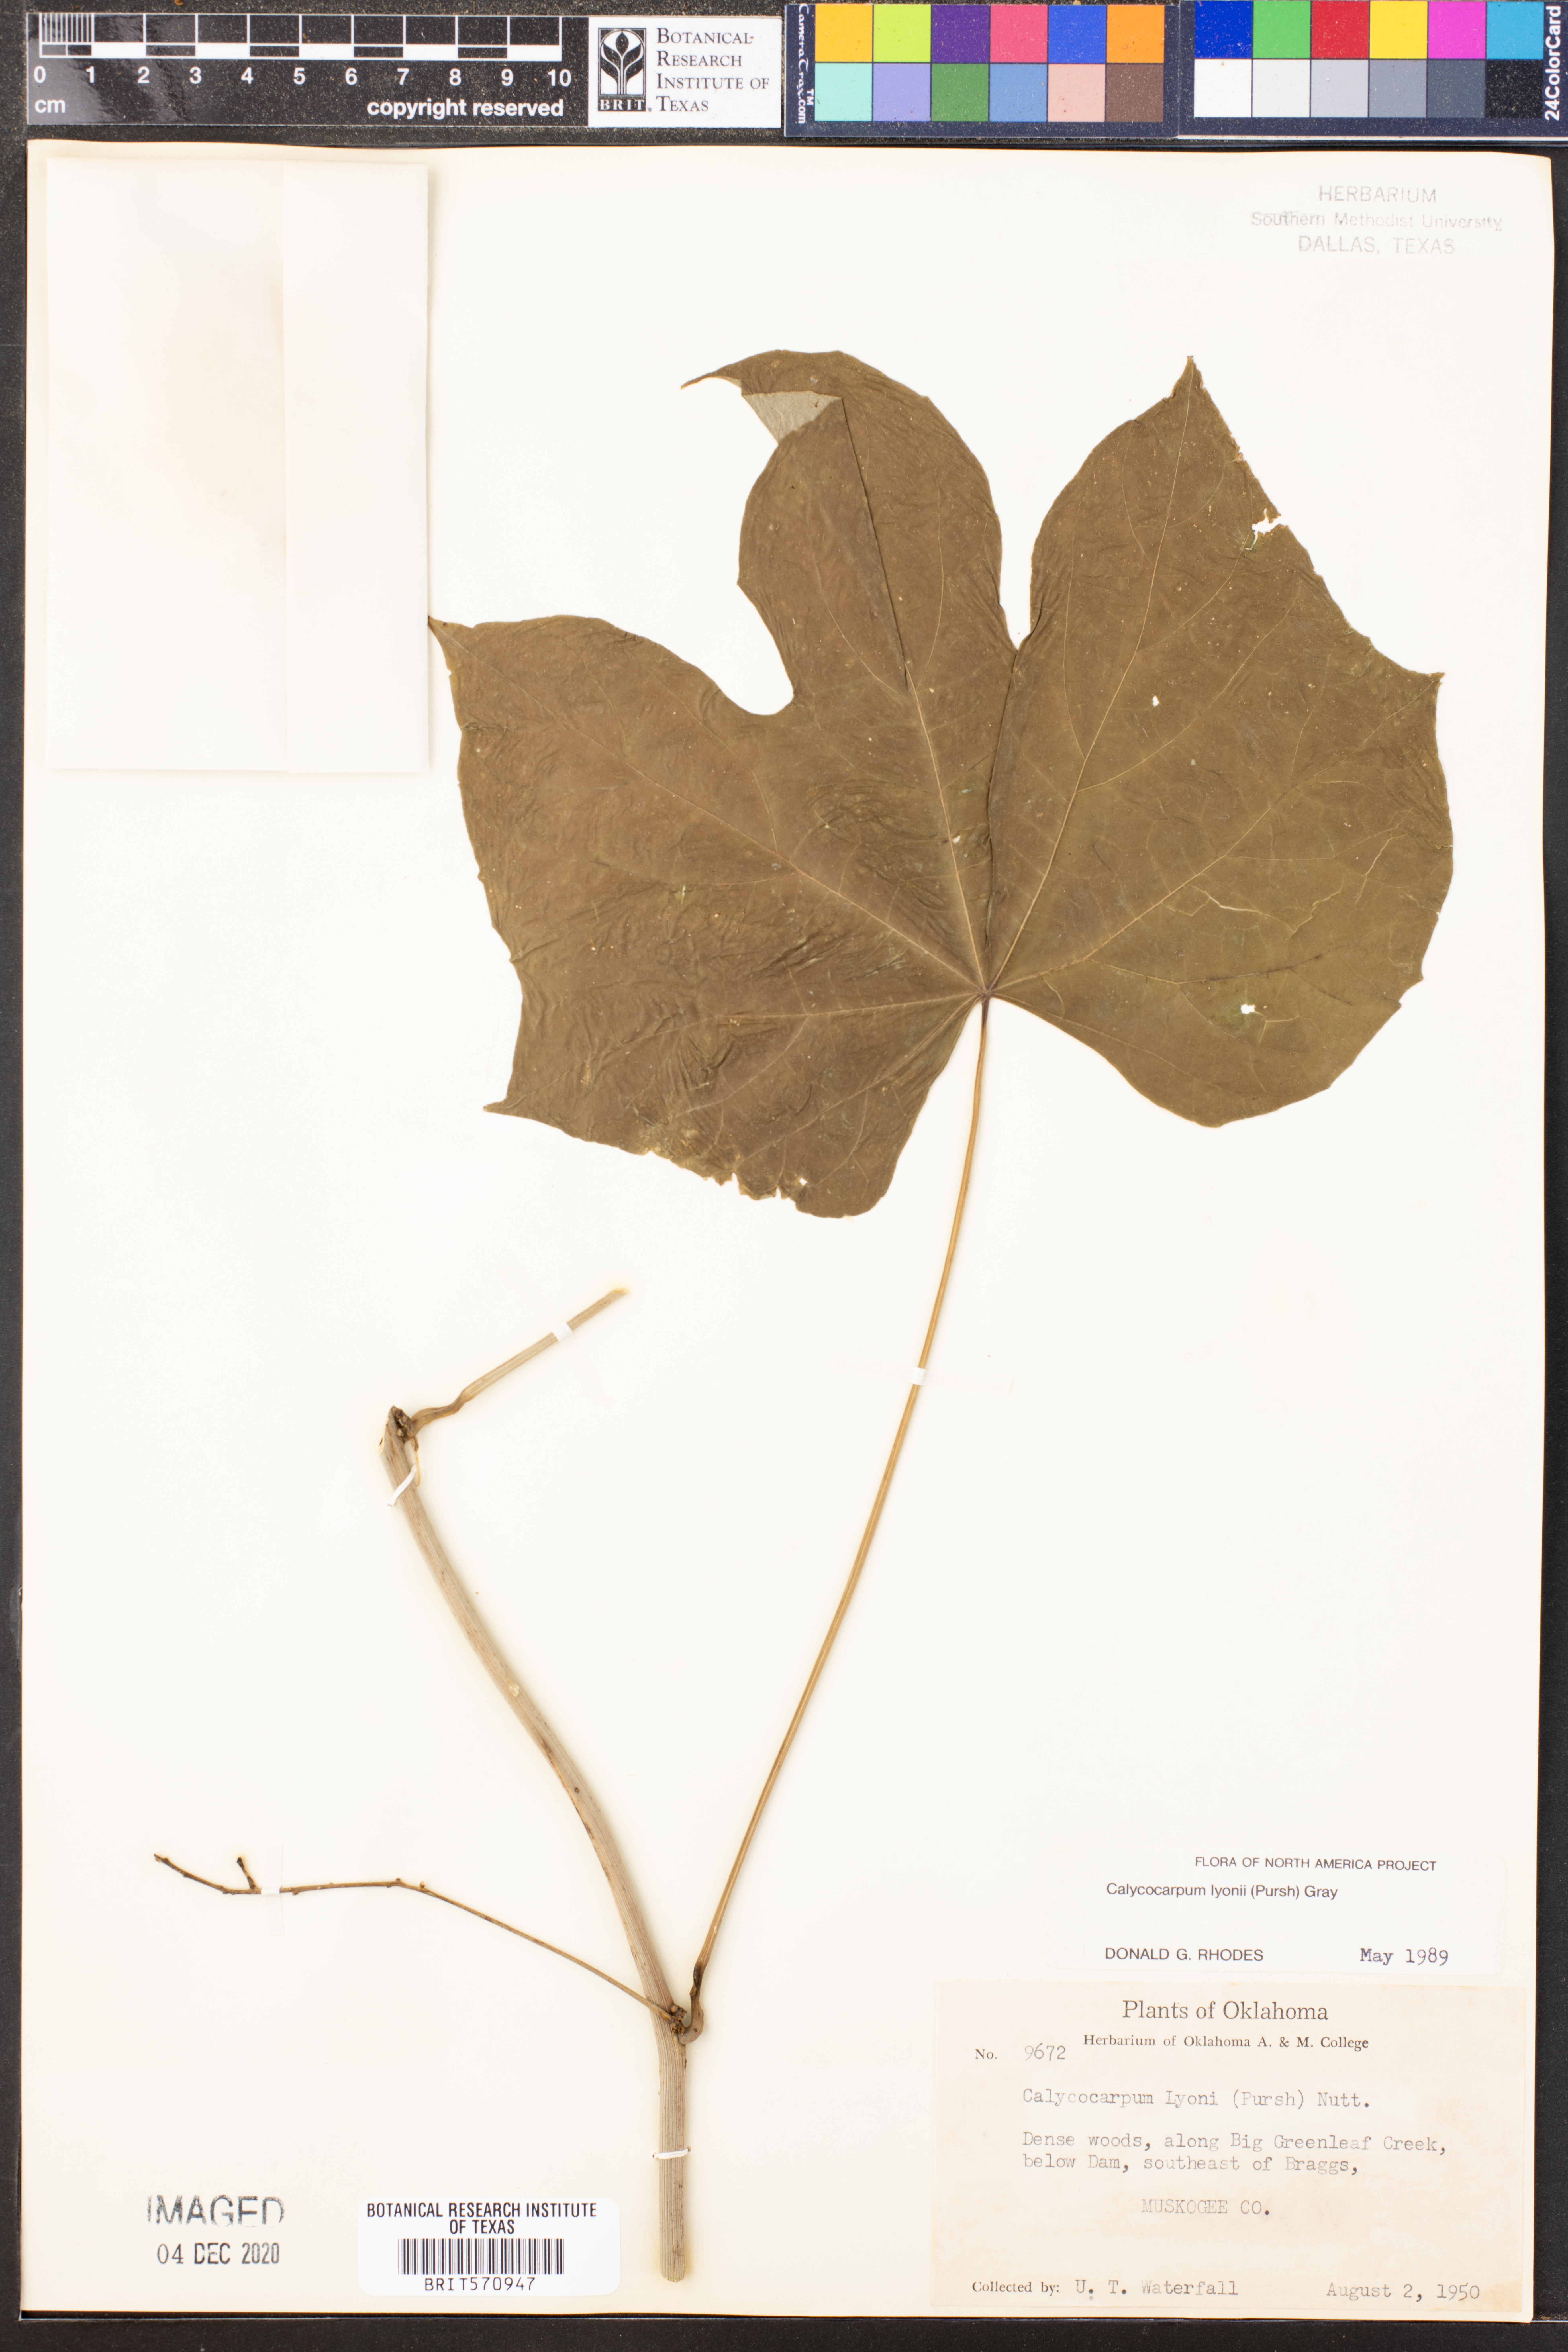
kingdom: Plantae
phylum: Tracheophyta
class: Magnoliopsida
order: Ranunculales
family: Menispermaceae
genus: Calycocarpum
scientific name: Calycocarpum lyonii
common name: Cupseed
